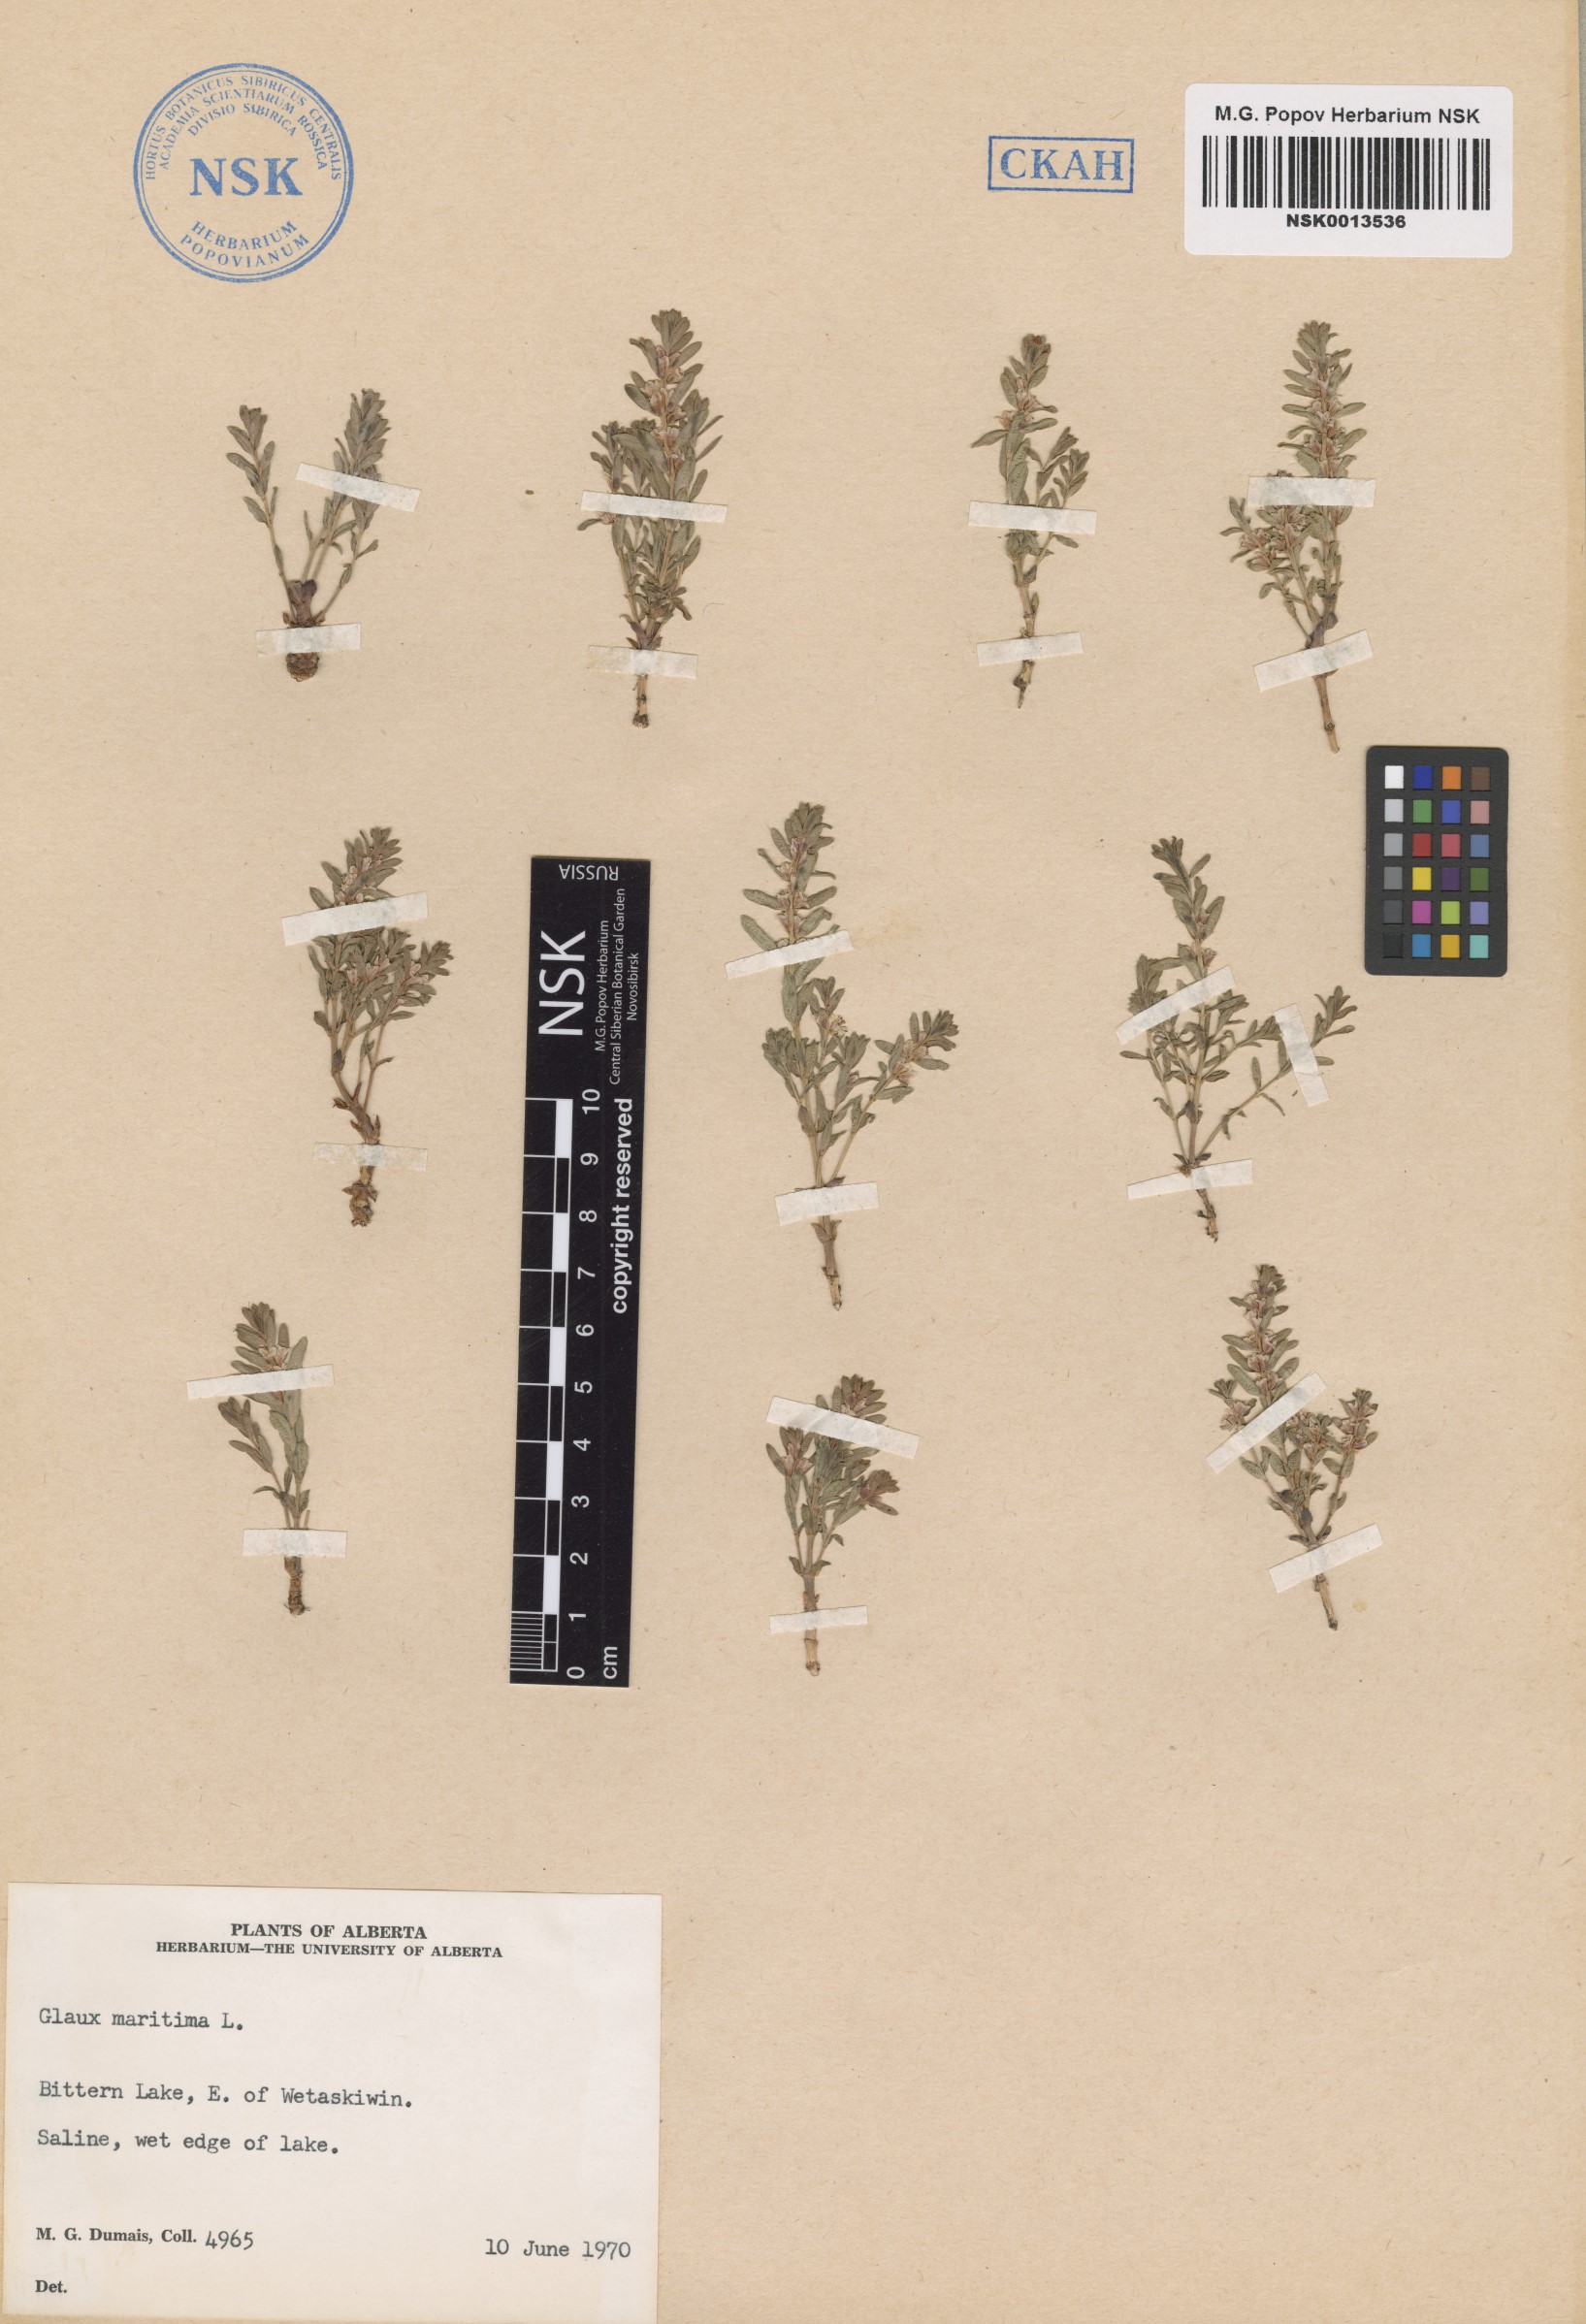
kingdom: Plantae
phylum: Tracheophyta
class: Magnoliopsida
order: Ericales
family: Primulaceae
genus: Lysimachia
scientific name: Lysimachia maritima
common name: Sea milkwort
